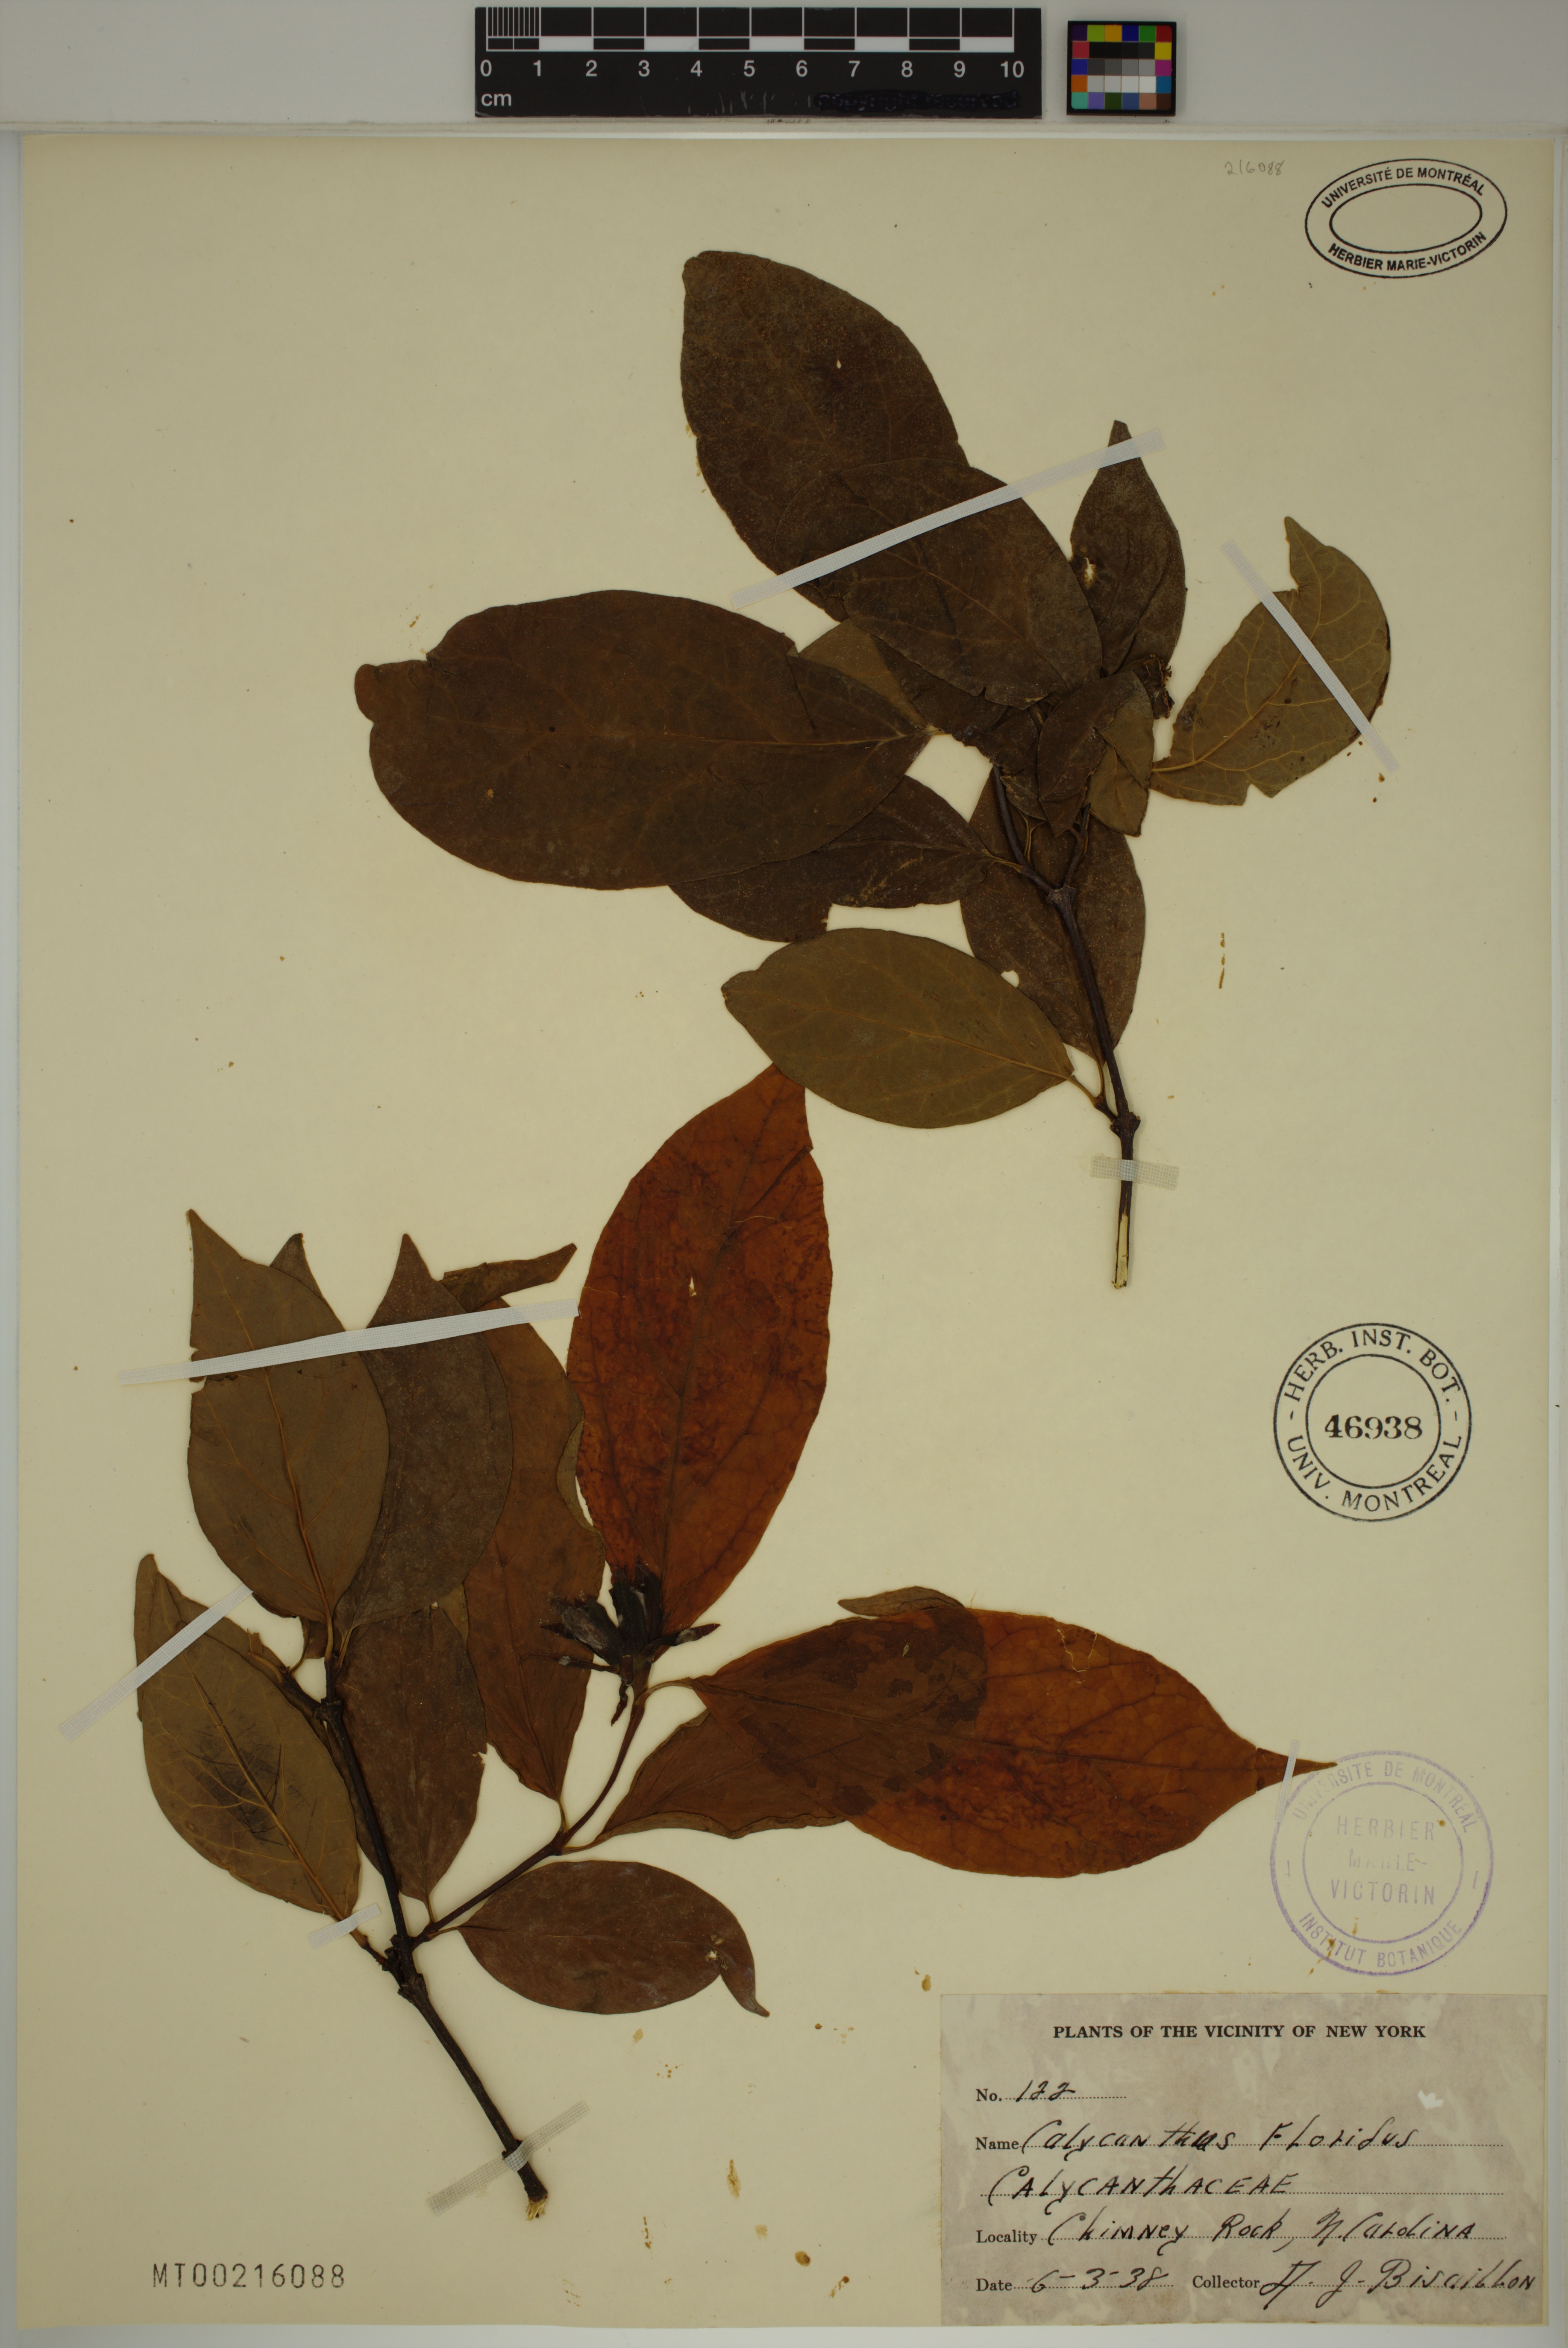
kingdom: Plantae
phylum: Tracheophyta
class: Magnoliopsida
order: Laurales
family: Calycanthaceae
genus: Calycanthus
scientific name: Calycanthus floridus
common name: Carolina-allspice
